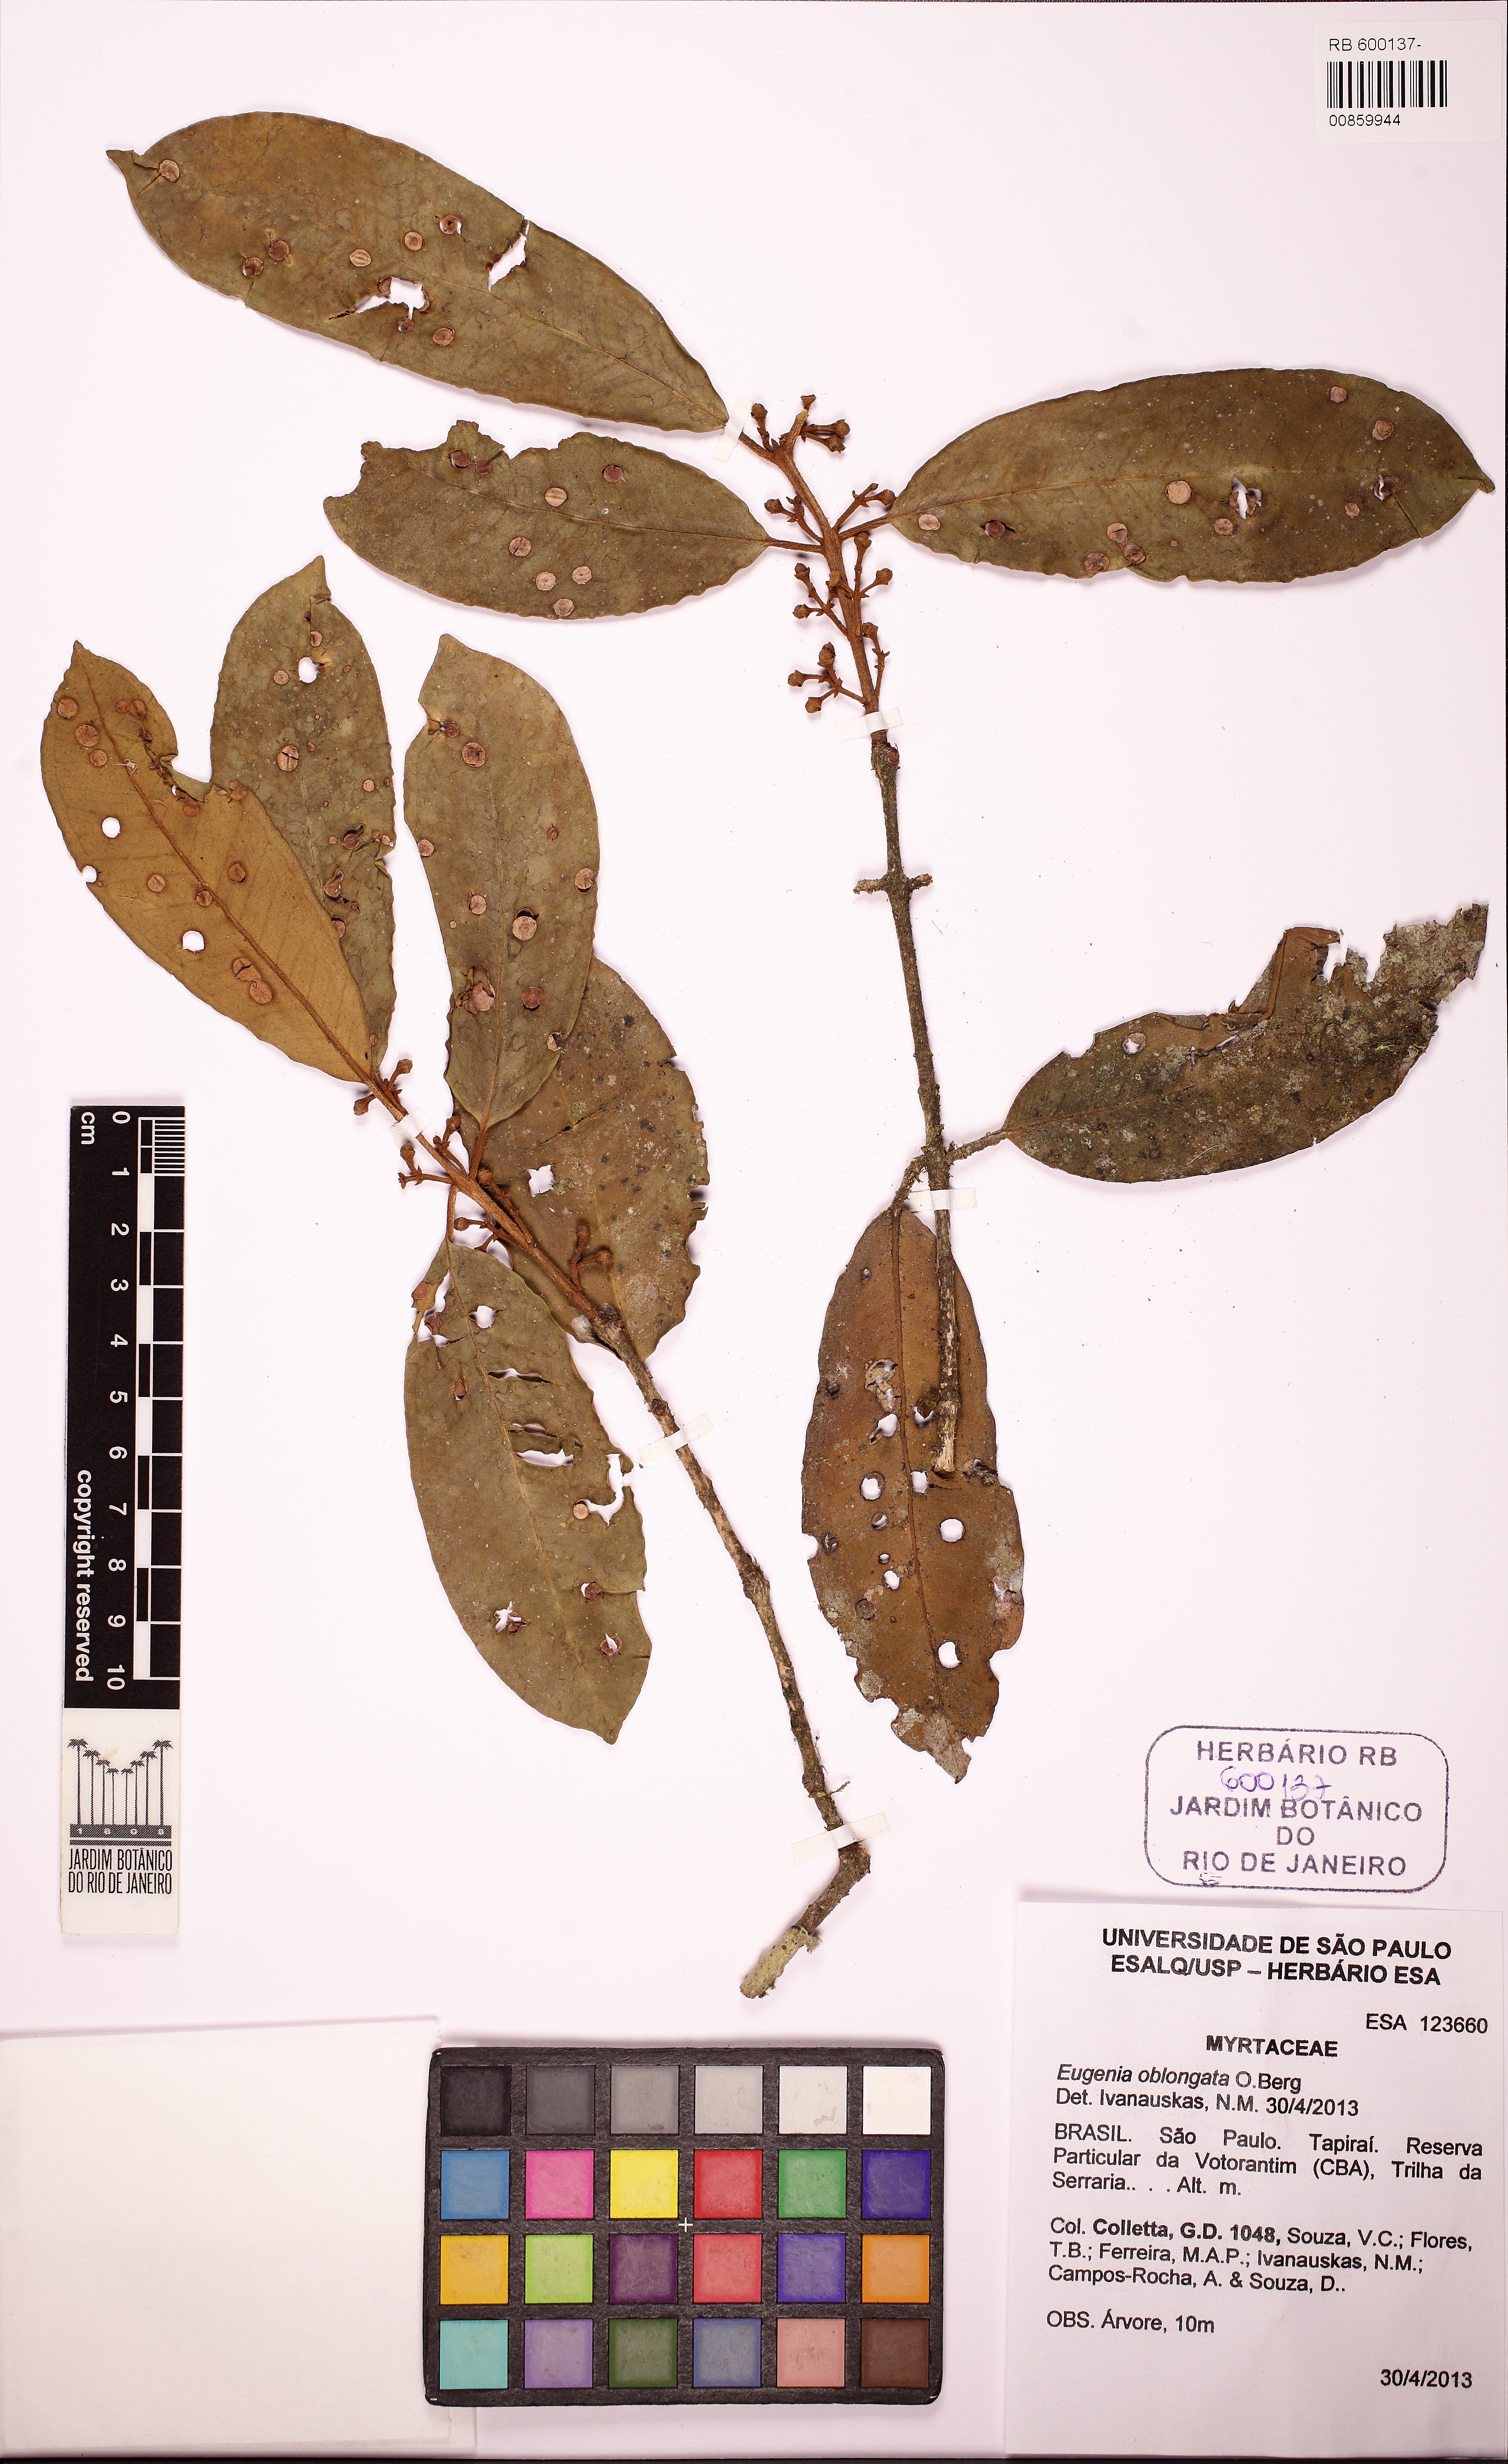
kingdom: Plantae
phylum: Tracheophyta
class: Magnoliopsida
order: Myrtales
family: Myrtaceae
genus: Eugenia
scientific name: Eugenia oblongata
